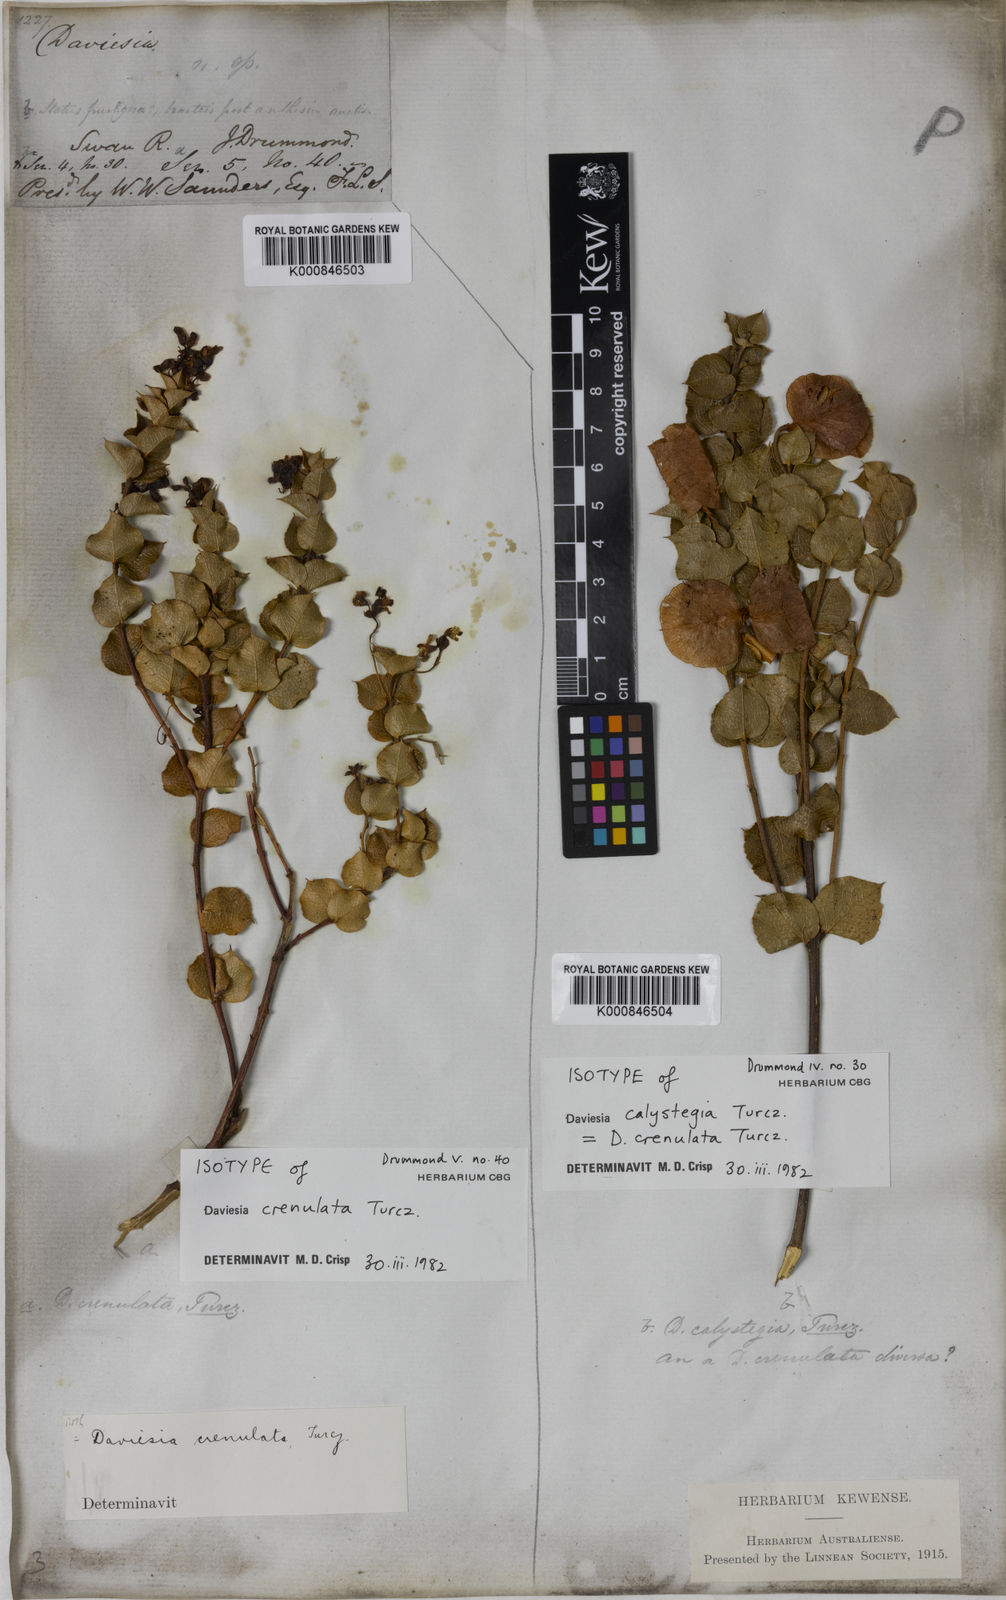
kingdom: Plantae
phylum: Tracheophyta
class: Magnoliopsida
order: Fabales
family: Fabaceae
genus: Daviesia
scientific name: Daviesia crenulata
